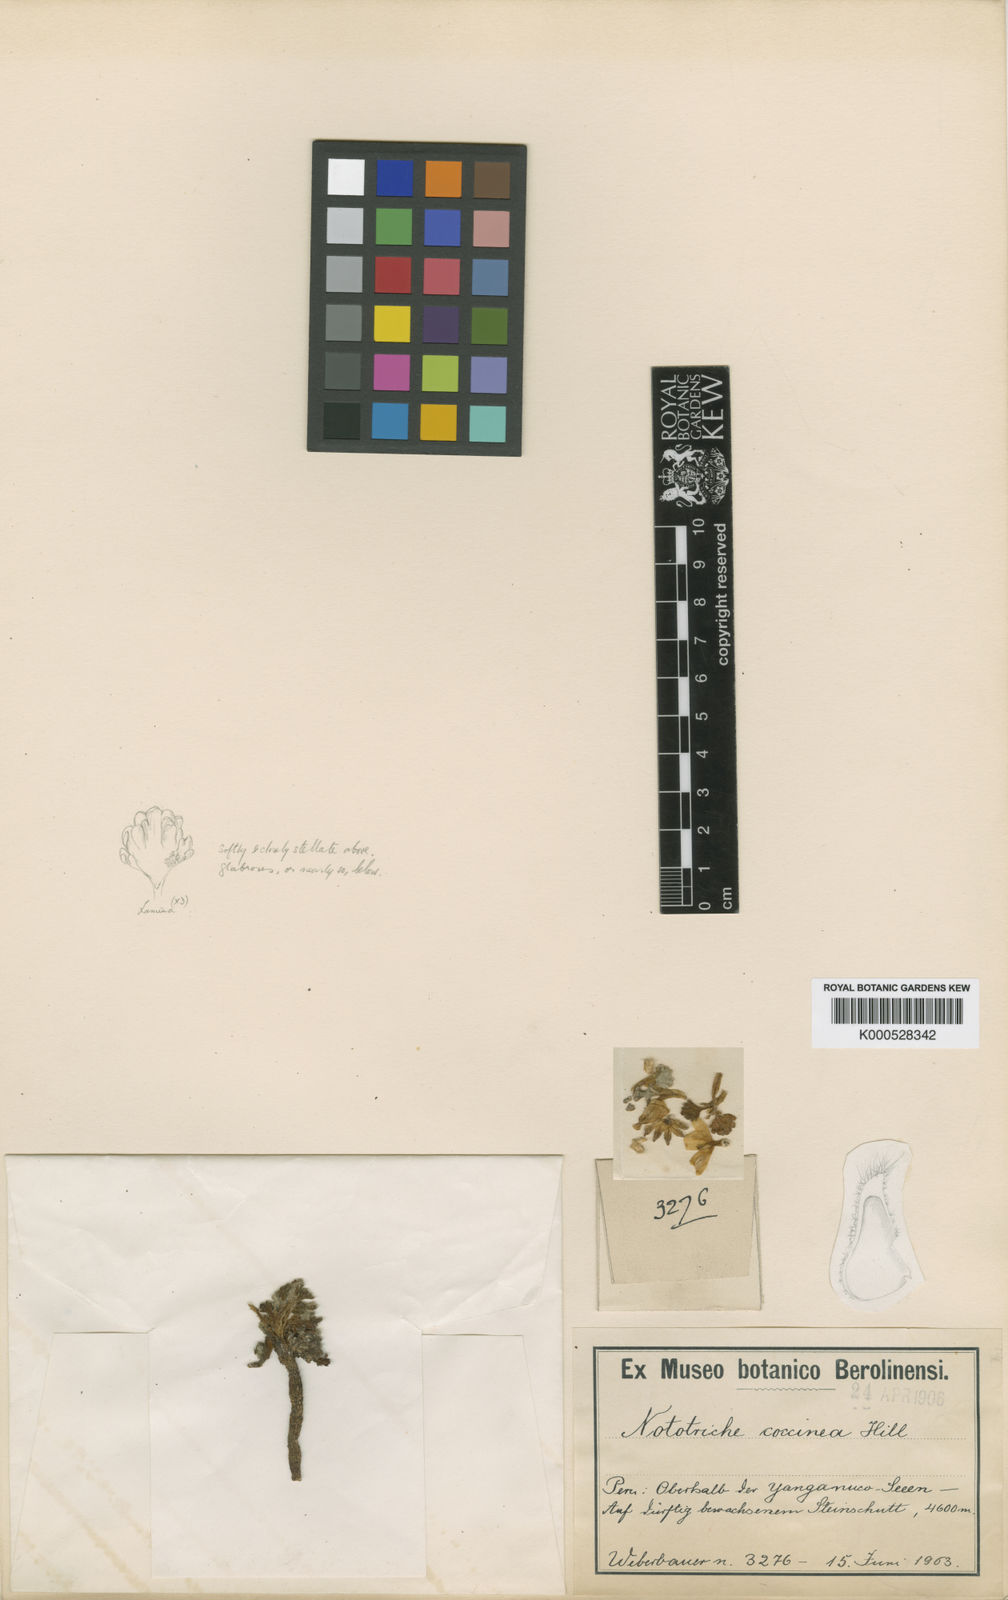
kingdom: Plantae
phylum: Tracheophyta
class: Magnoliopsida
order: Malvales
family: Malvaceae
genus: Nototriche
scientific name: Nototriche coccinea
